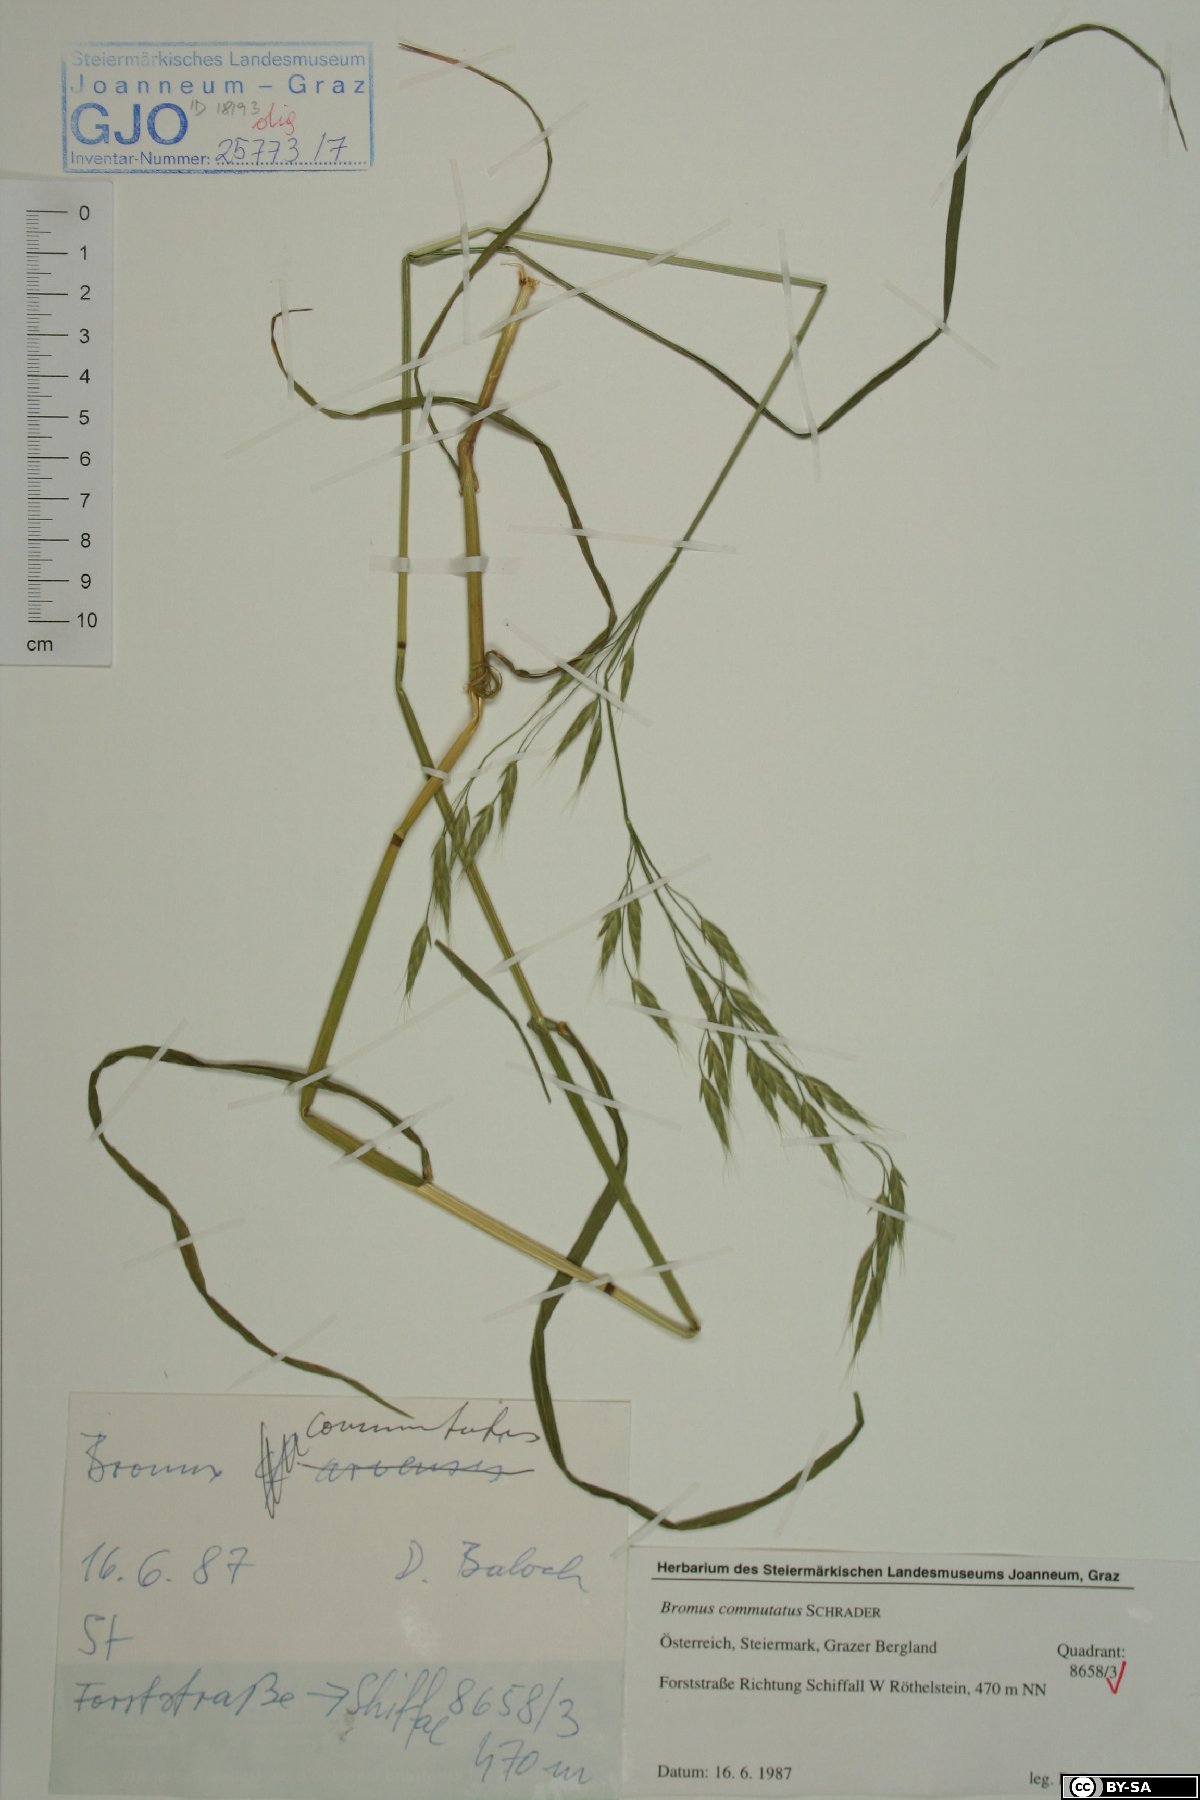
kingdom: Plantae
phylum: Tracheophyta
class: Liliopsida
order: Poales
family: Poaceae
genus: Bromus
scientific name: Bromus commutatus
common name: Meadow brome
